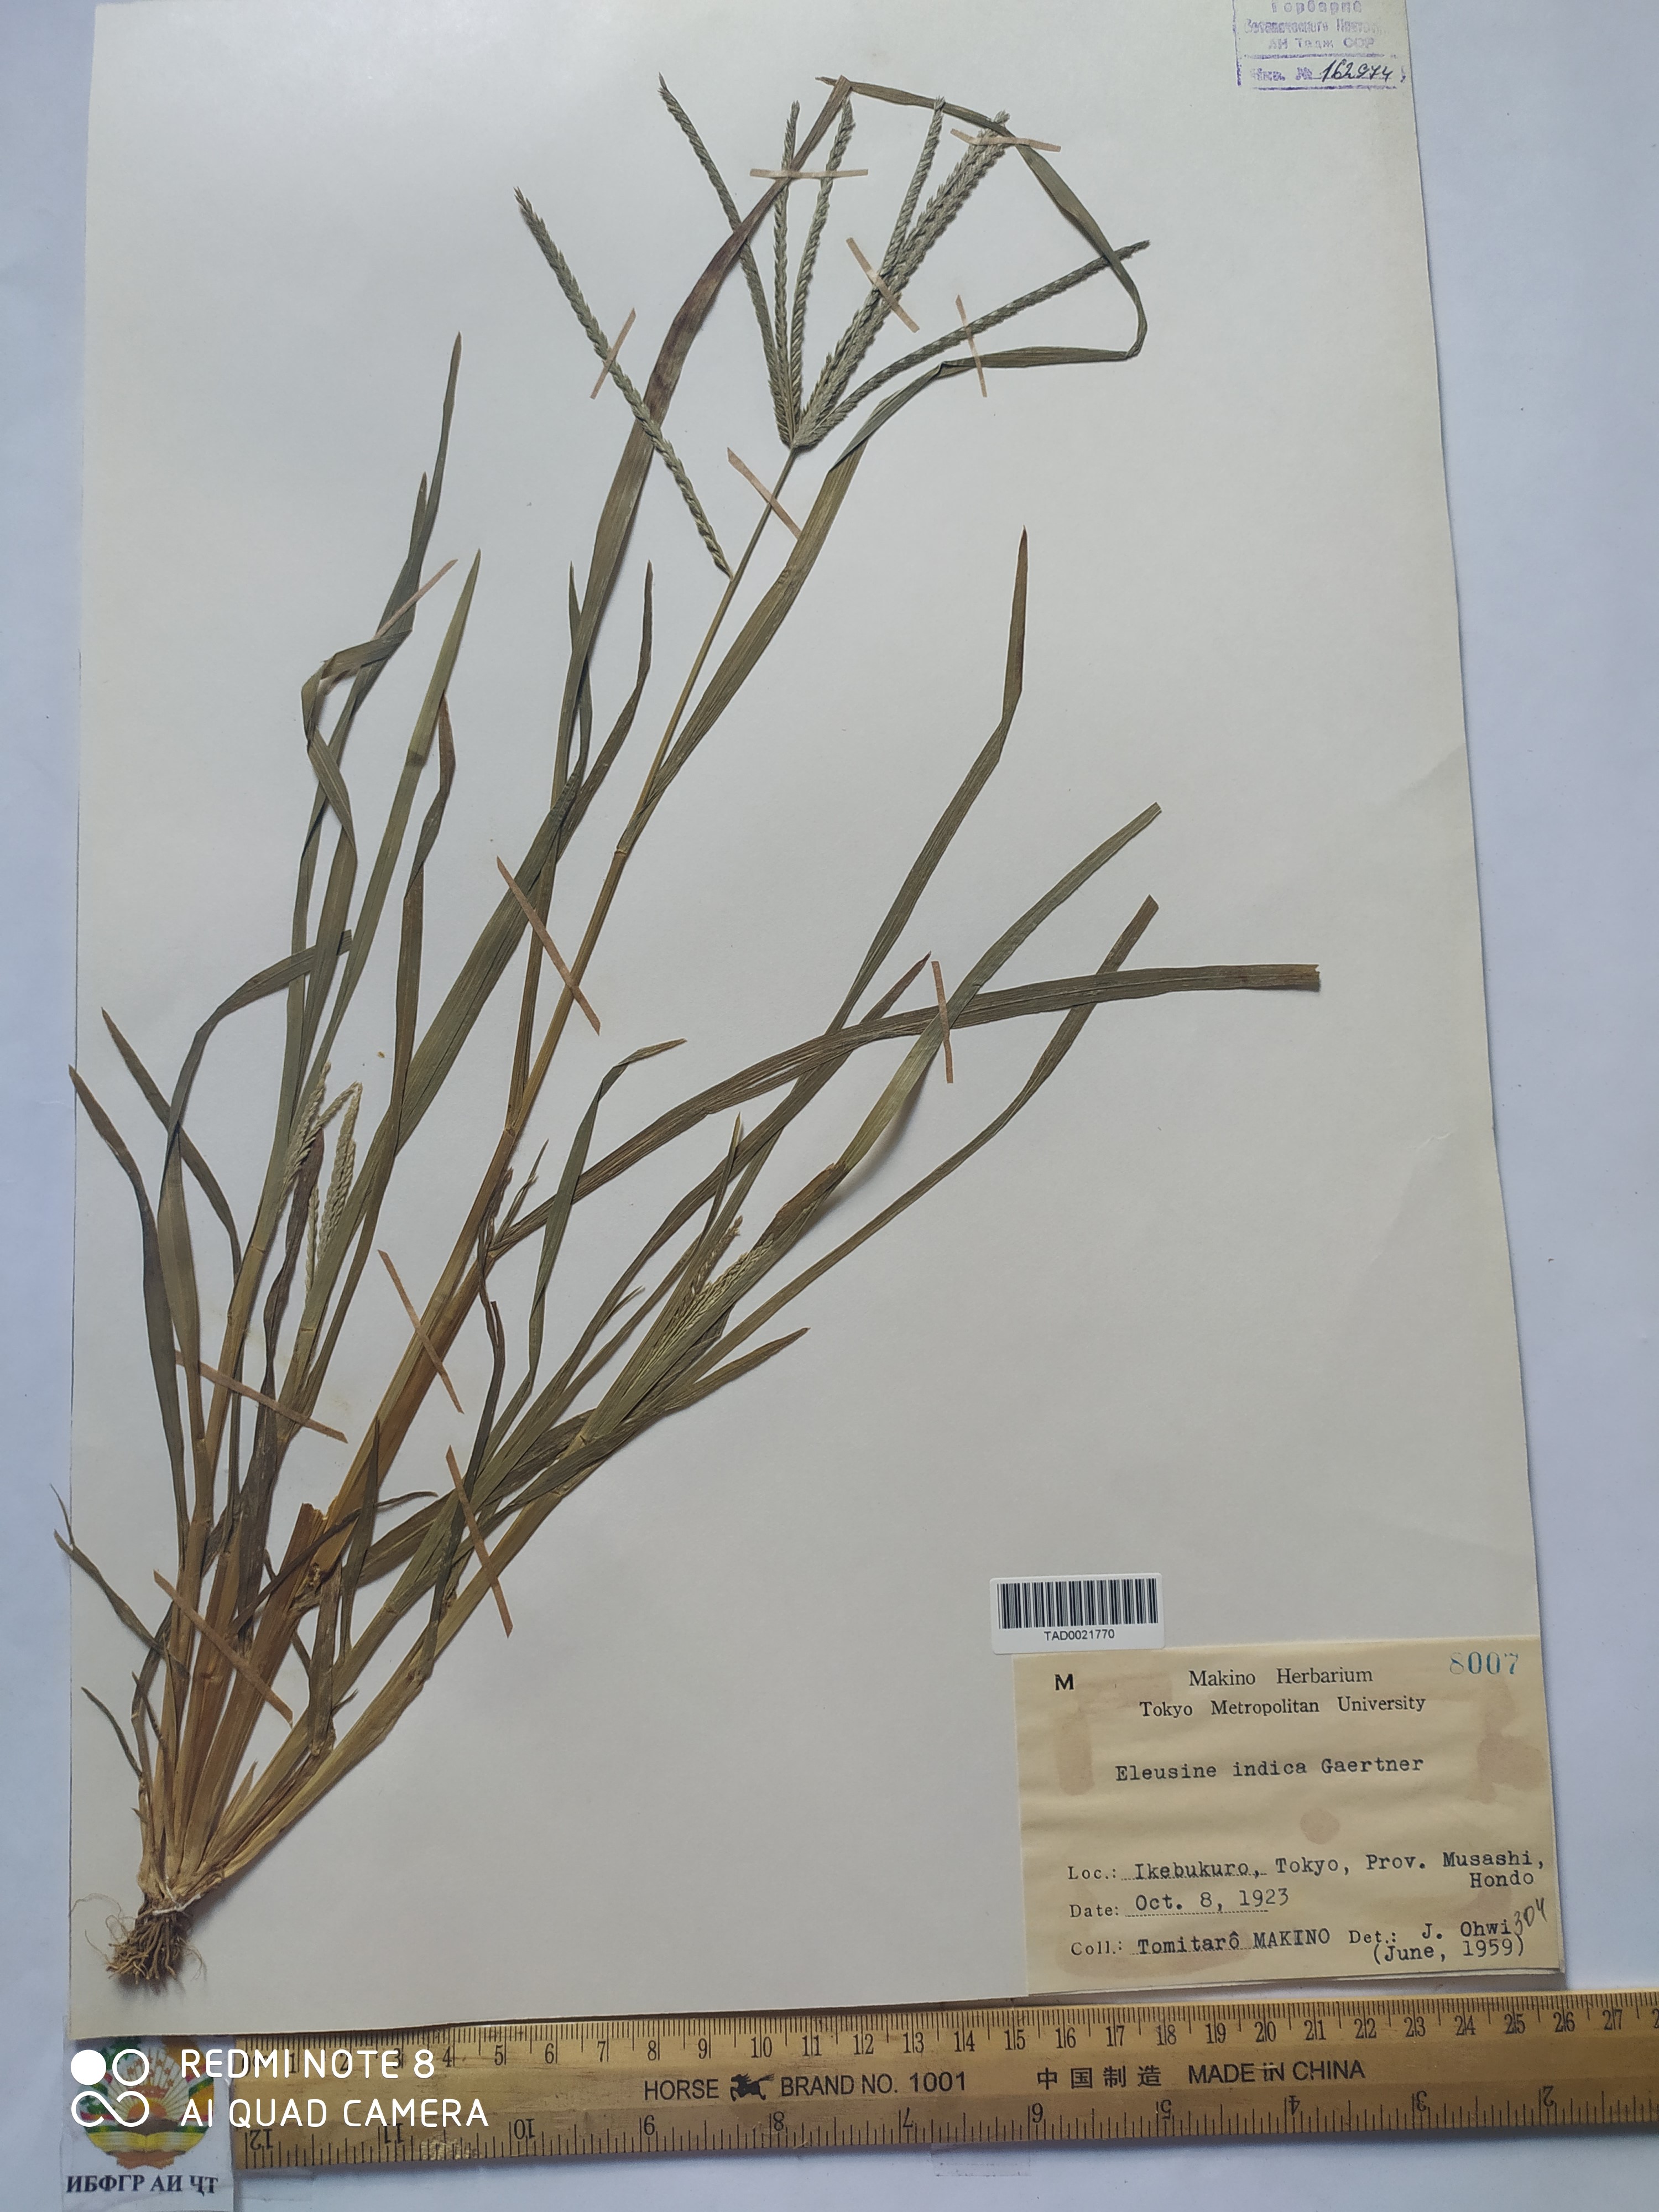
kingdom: Plantae
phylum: Tracheophyta
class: Liliopsida
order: Poales
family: Poaceae
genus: Eleusine
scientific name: Eleusine indica
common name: Yard-grass
